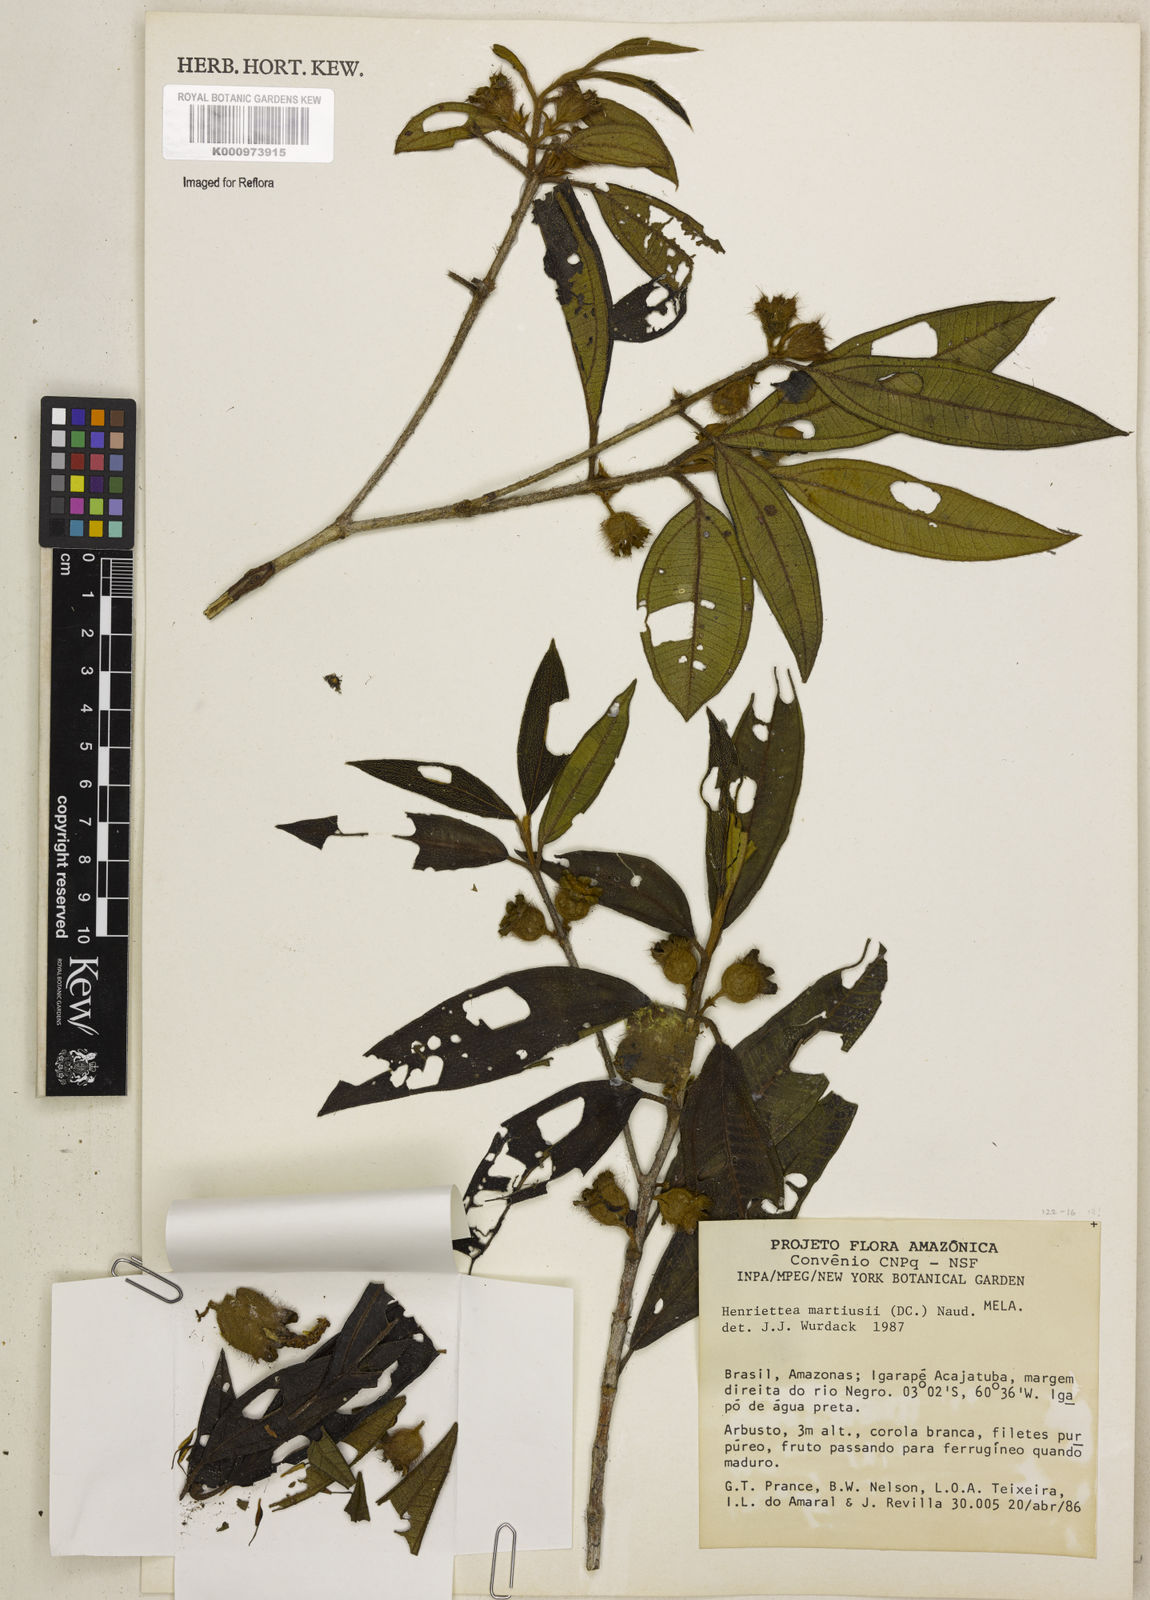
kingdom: Plantae
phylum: Tracheophyta
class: Magnoliopsida
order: Myrtales
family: Melastomataceae
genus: Henriettea
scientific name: Henriettea martiusii
